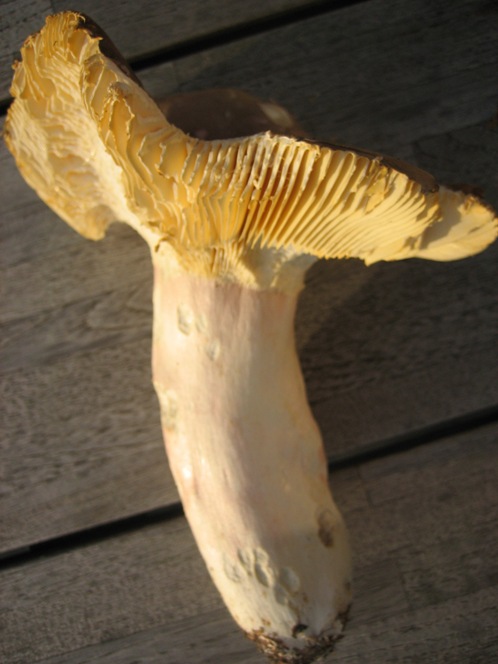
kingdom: Fungi
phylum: Basidiomycota
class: Agaricomycetes
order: Russulales
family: Russulaceae
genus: Russula
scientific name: Russula olivacea
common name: stor skørhat
